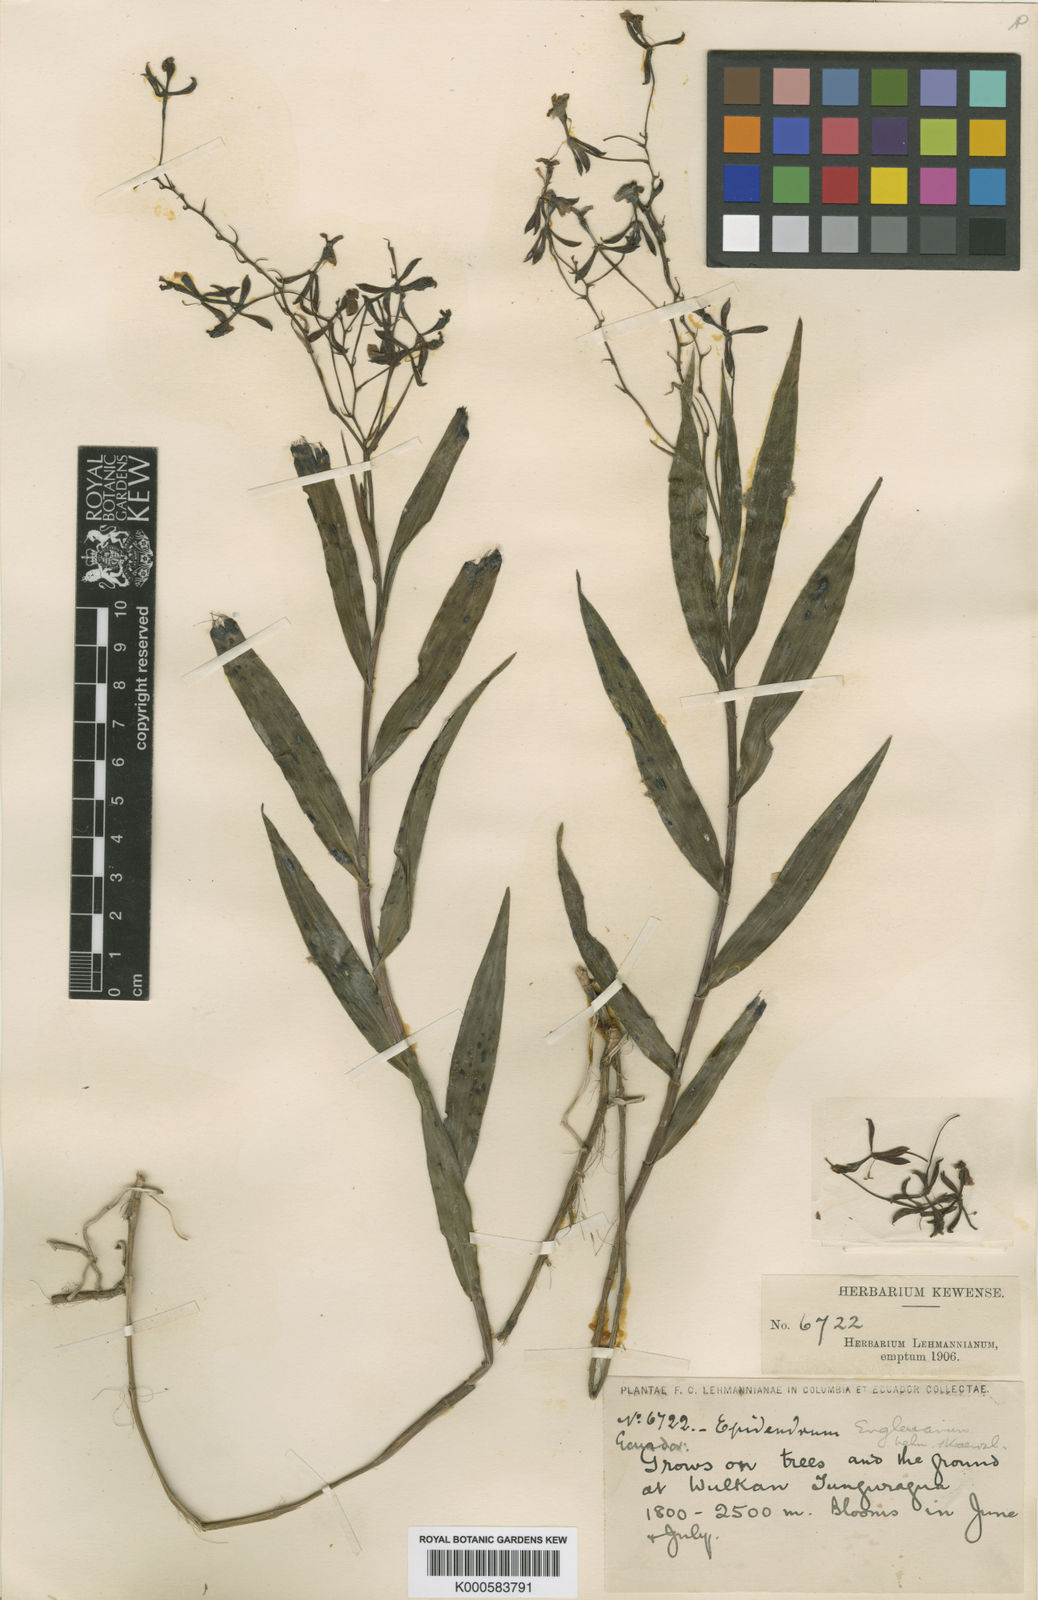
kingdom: Plantae
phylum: Tracheophyta
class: Liliopsida
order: Asparagales
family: Orchidaceae
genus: Epidendrum
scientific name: Epidendrum englerianum
